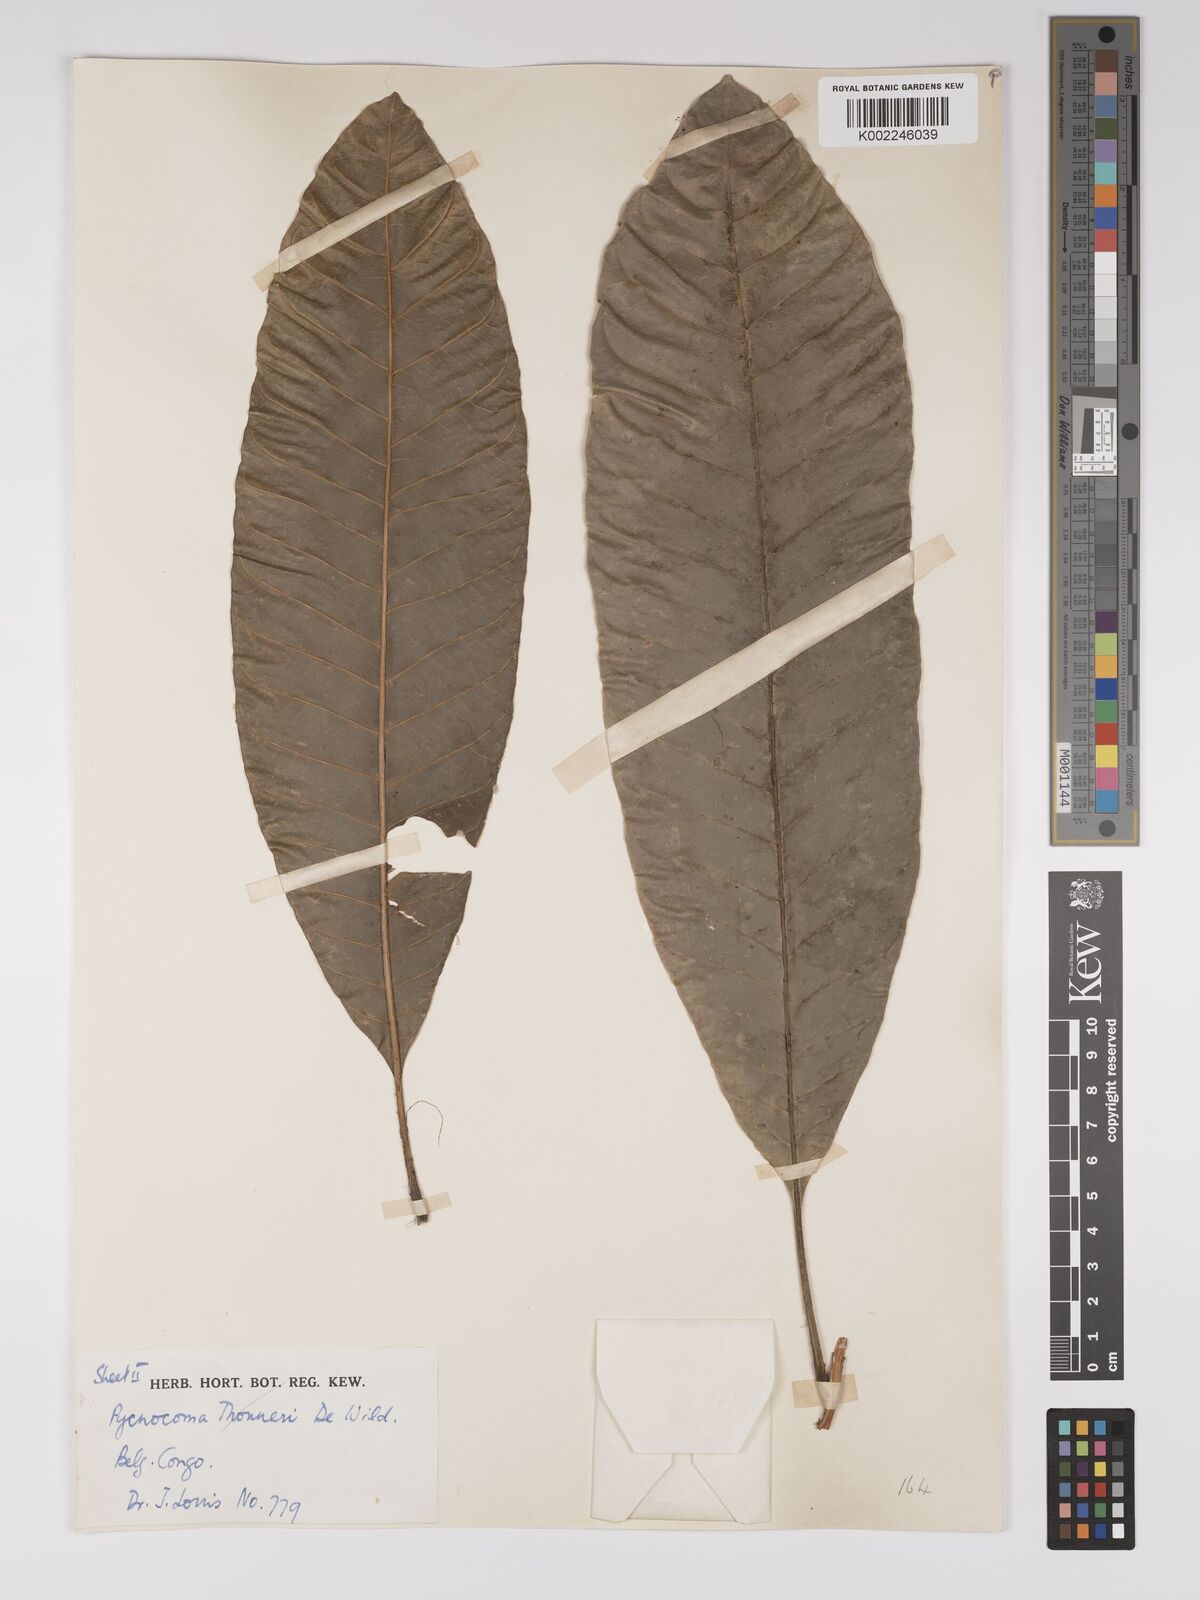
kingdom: Plantae
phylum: Tracheophyta
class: Magnoliopsida
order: Malpighiales
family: Euphorbiaceae
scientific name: Euphorbiaceae
